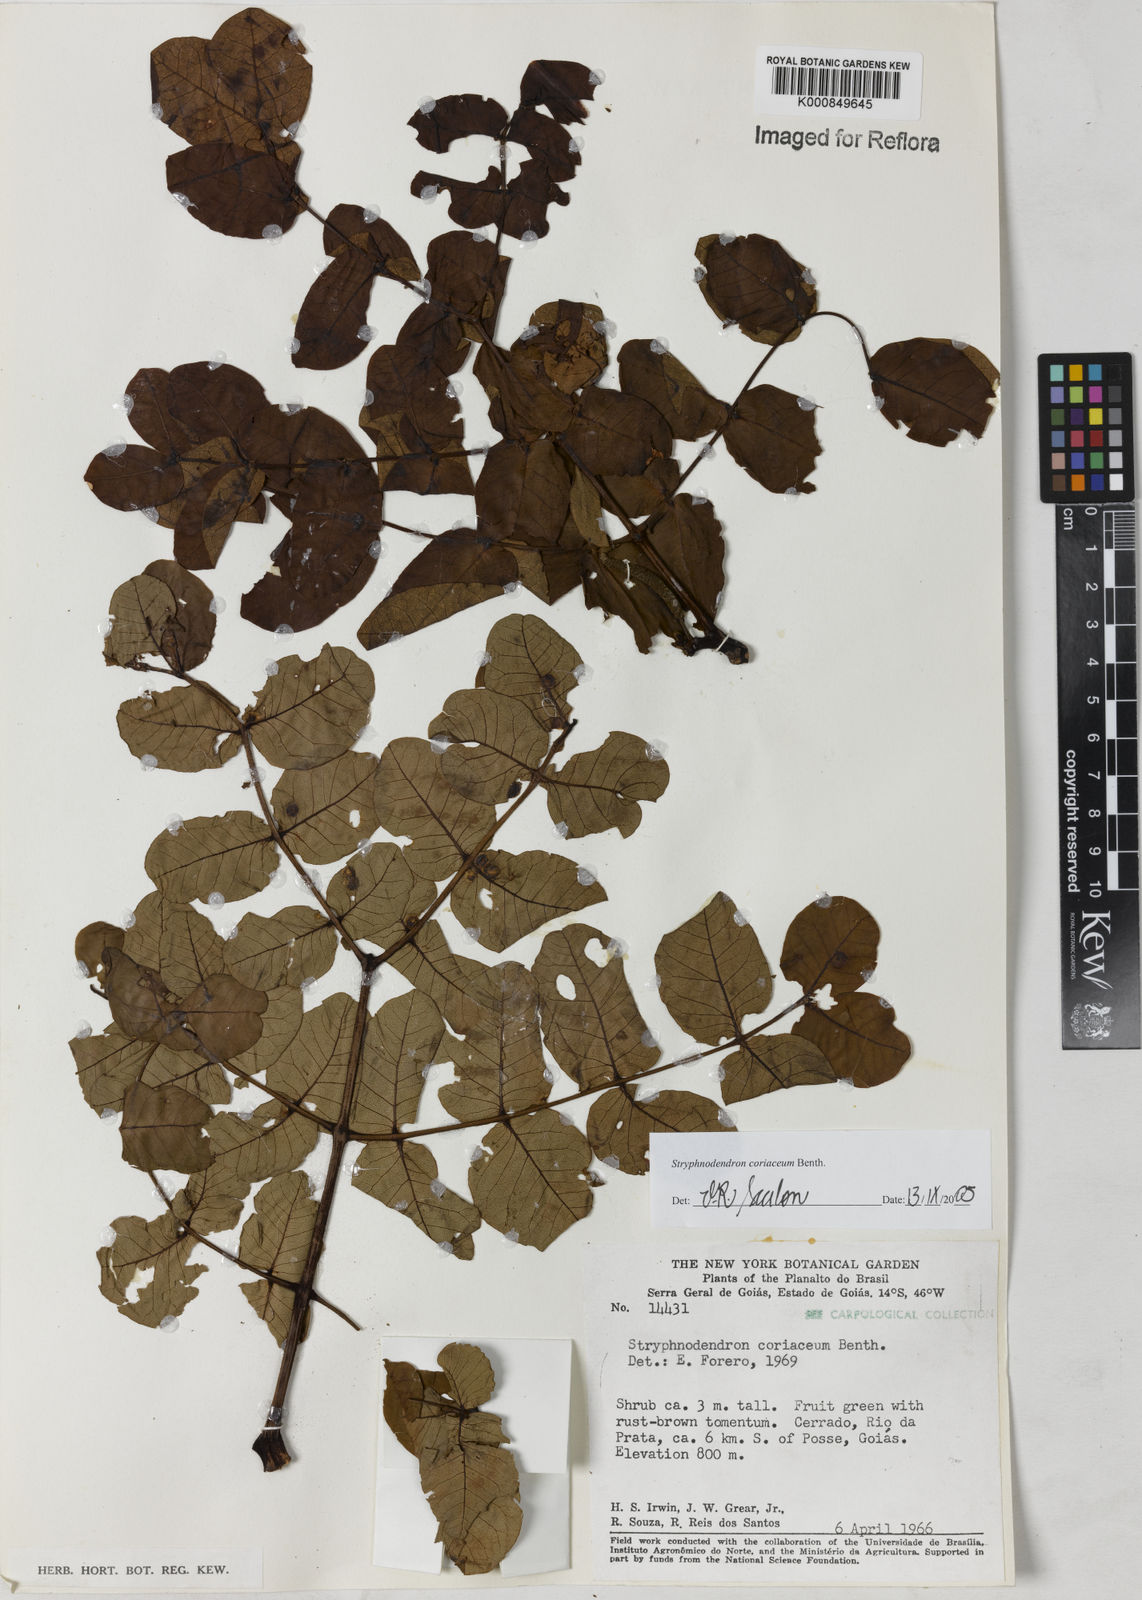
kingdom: Plantae
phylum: Tracheophyta
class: Magnoliopsida
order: Fabales
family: Fabaceae
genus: Stryphnodendron
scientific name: Stryphnodendron coriaceum
